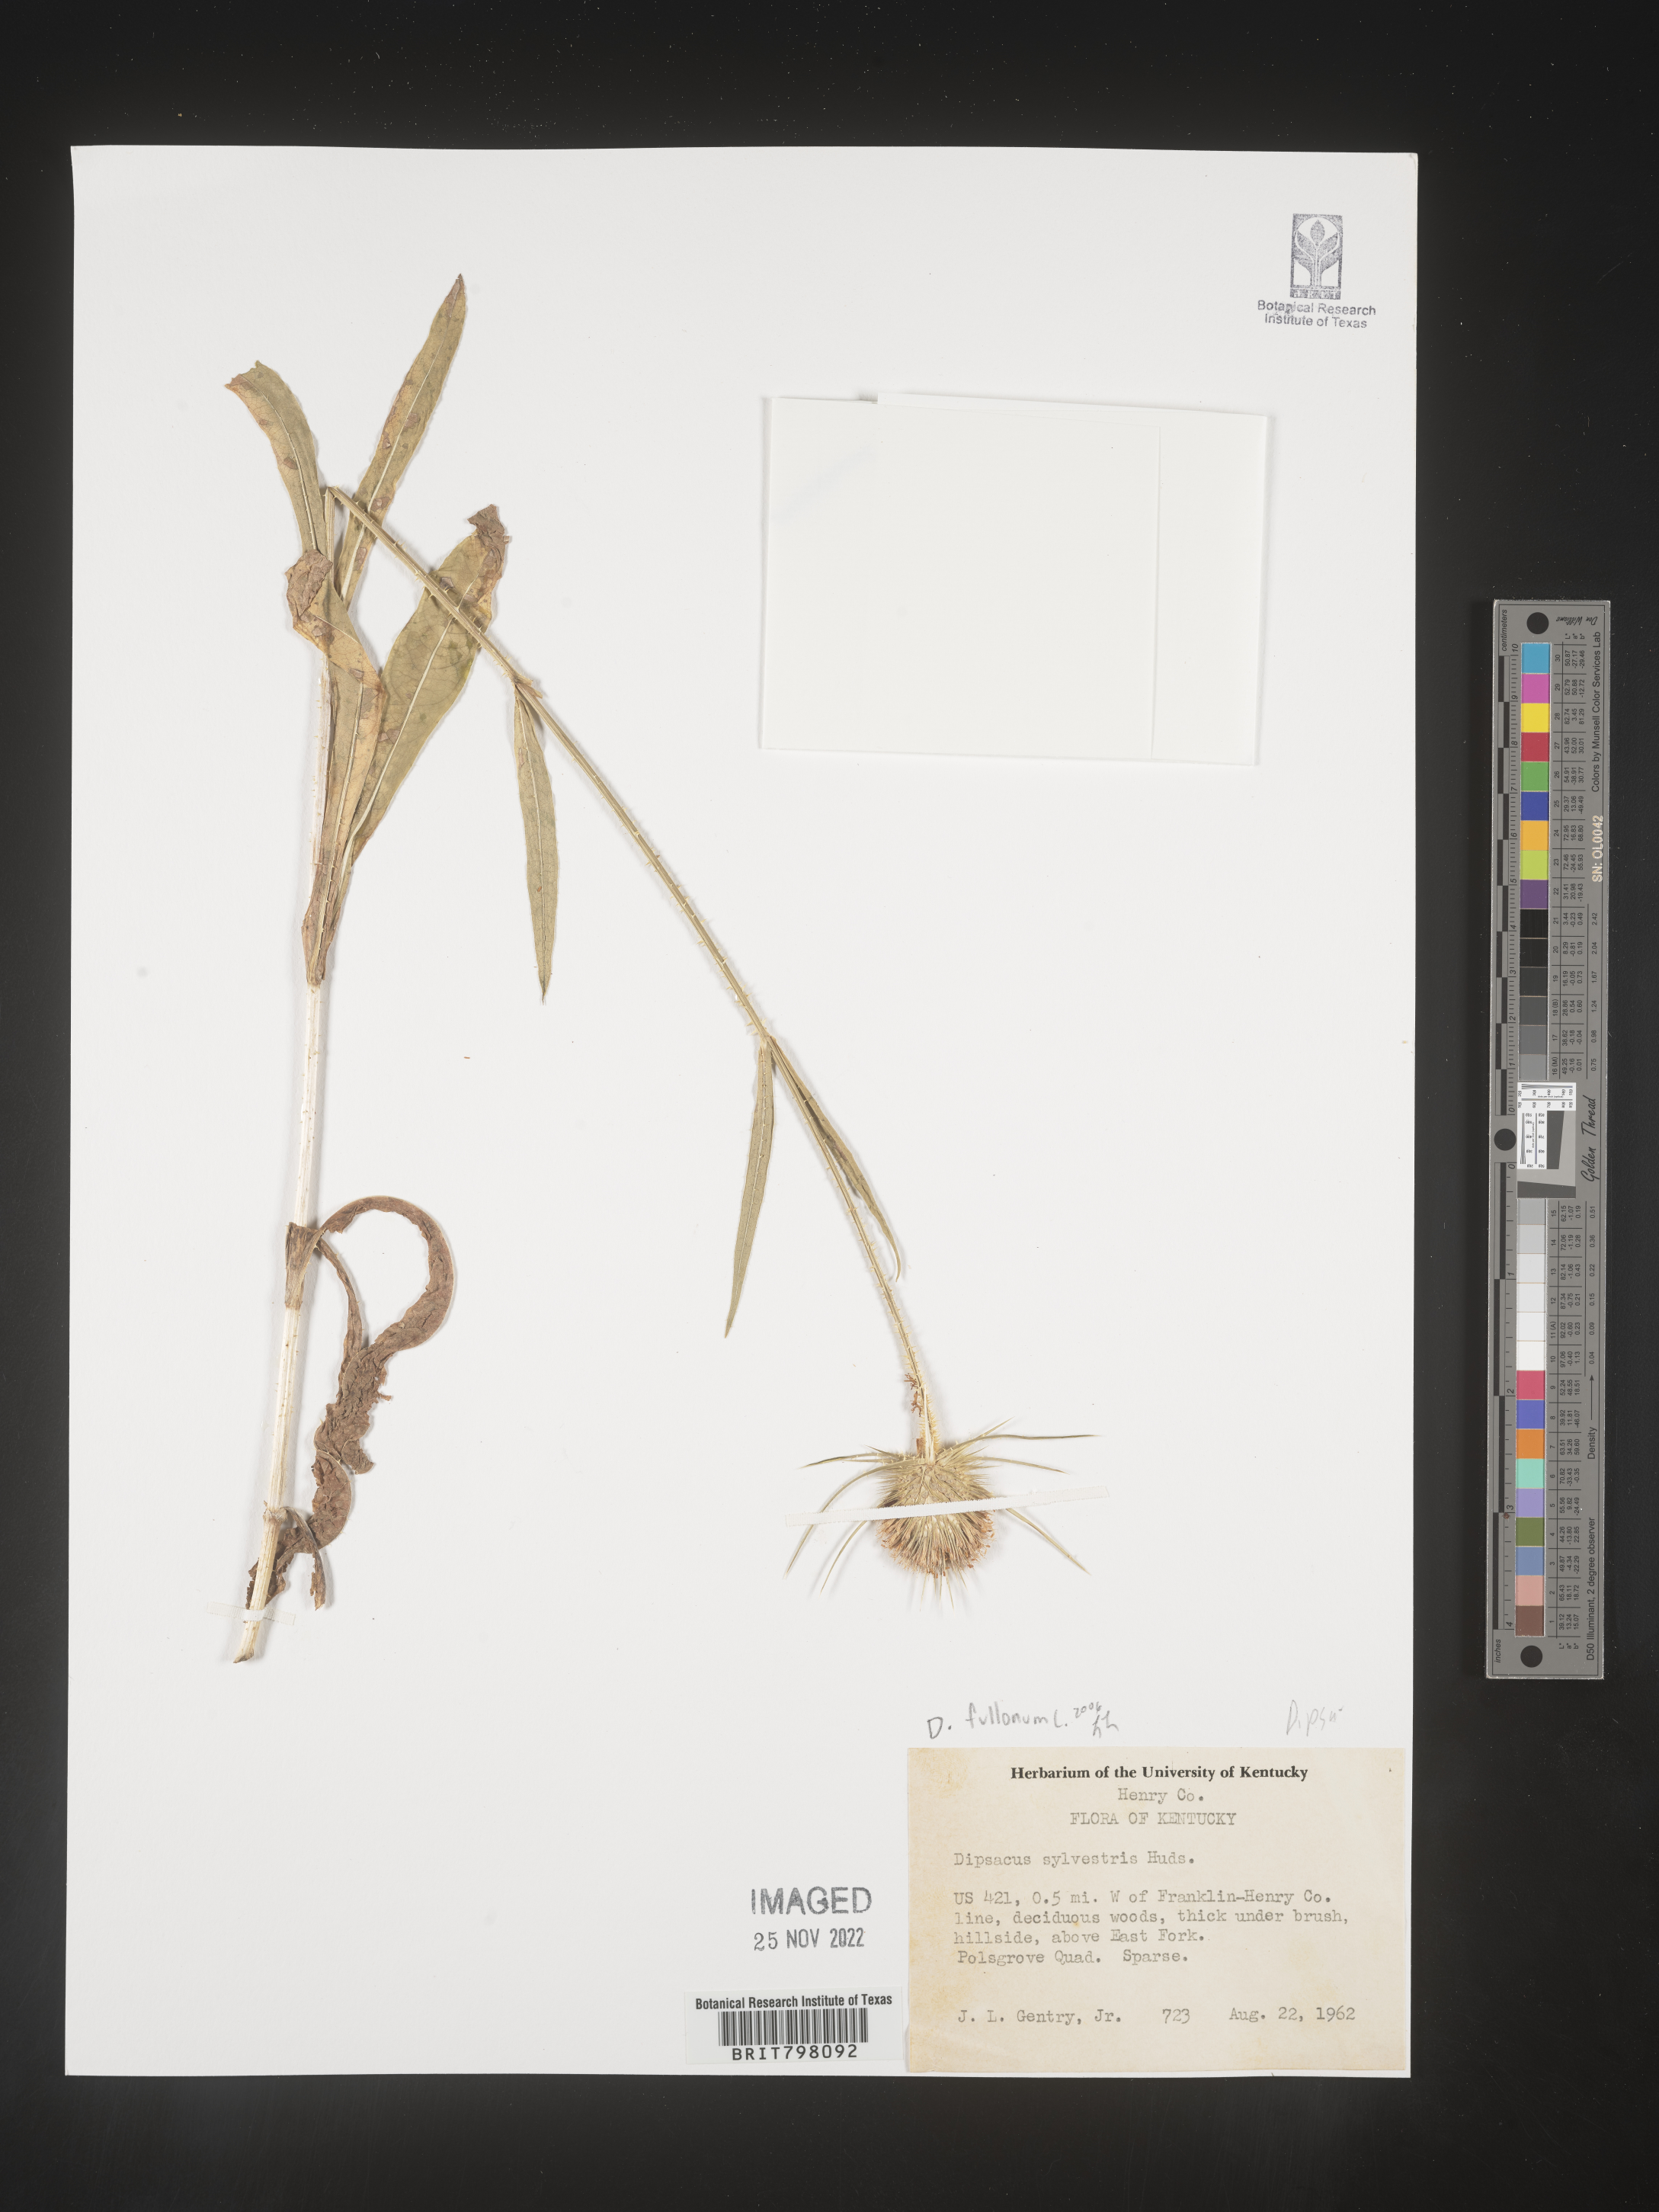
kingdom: Plantae
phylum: Tracheophyta
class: Magnoliopsida
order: Dipsacales
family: Caprifoliaceae
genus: Dipsacus
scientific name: Dipsacus
